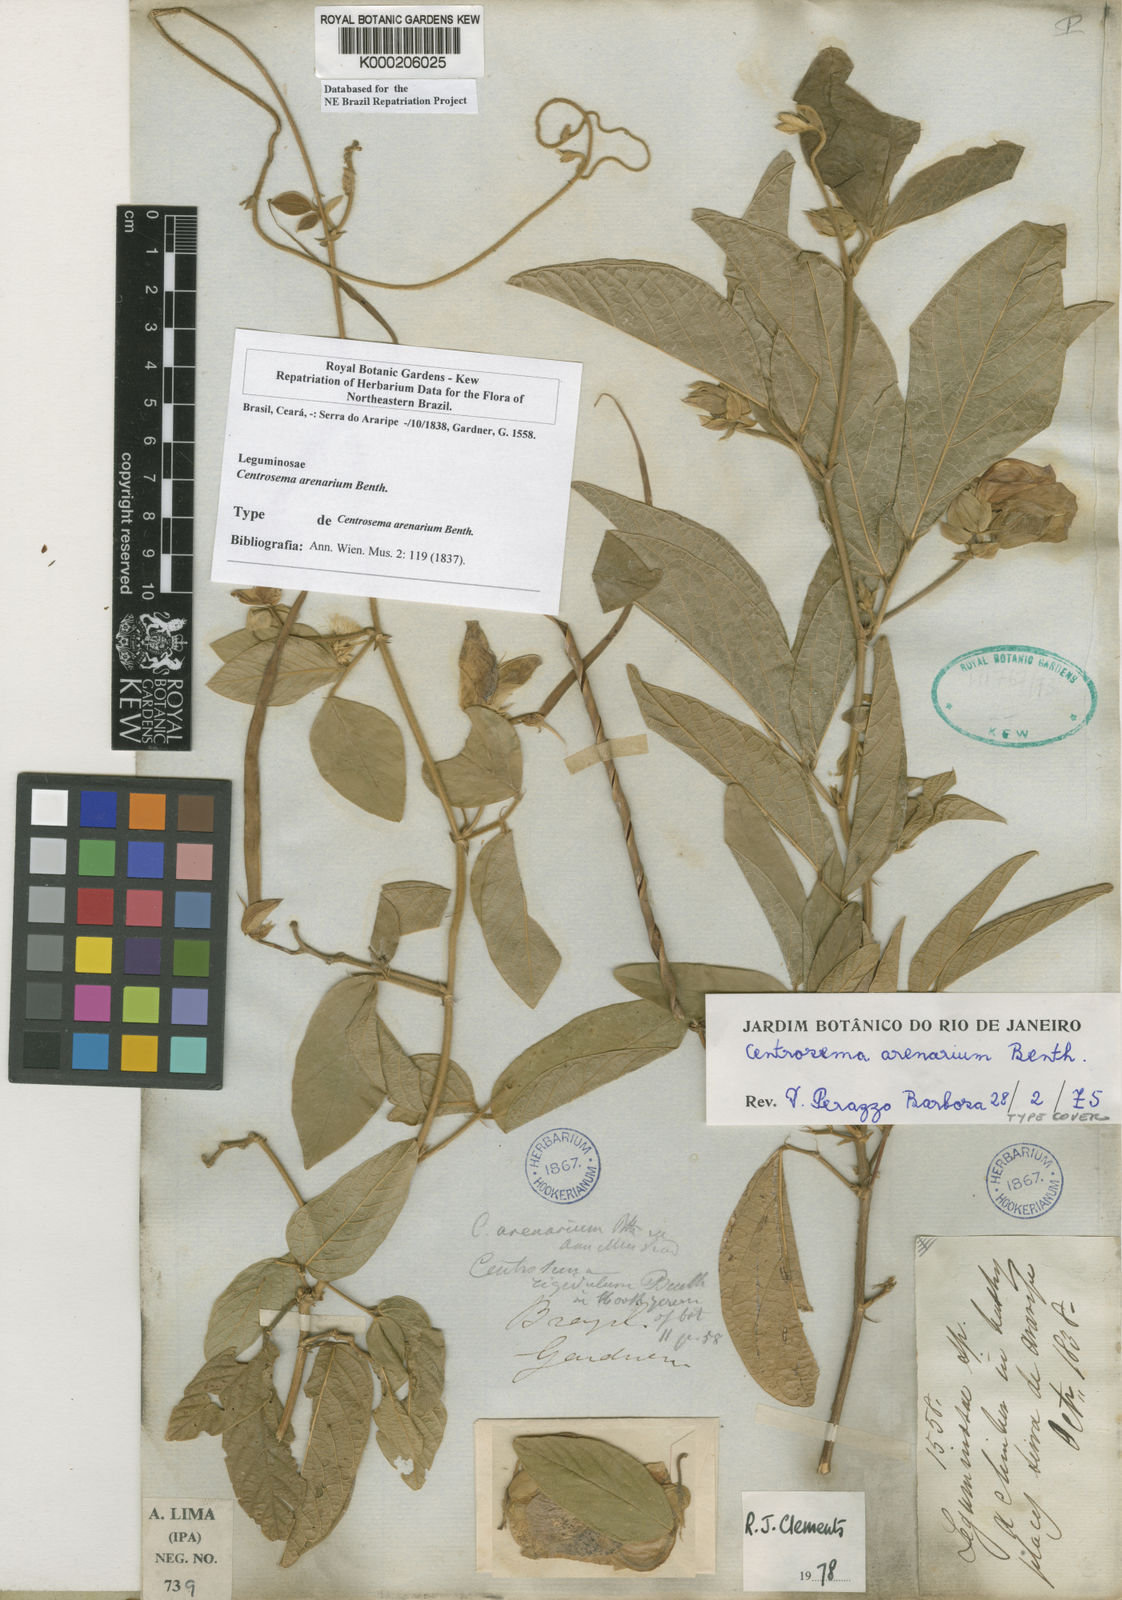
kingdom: Plantae
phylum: Tracheophyta
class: Magnoliopsida
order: Fabales
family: Fabaceae
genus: Centrosema
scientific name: Centrosema arenarium
